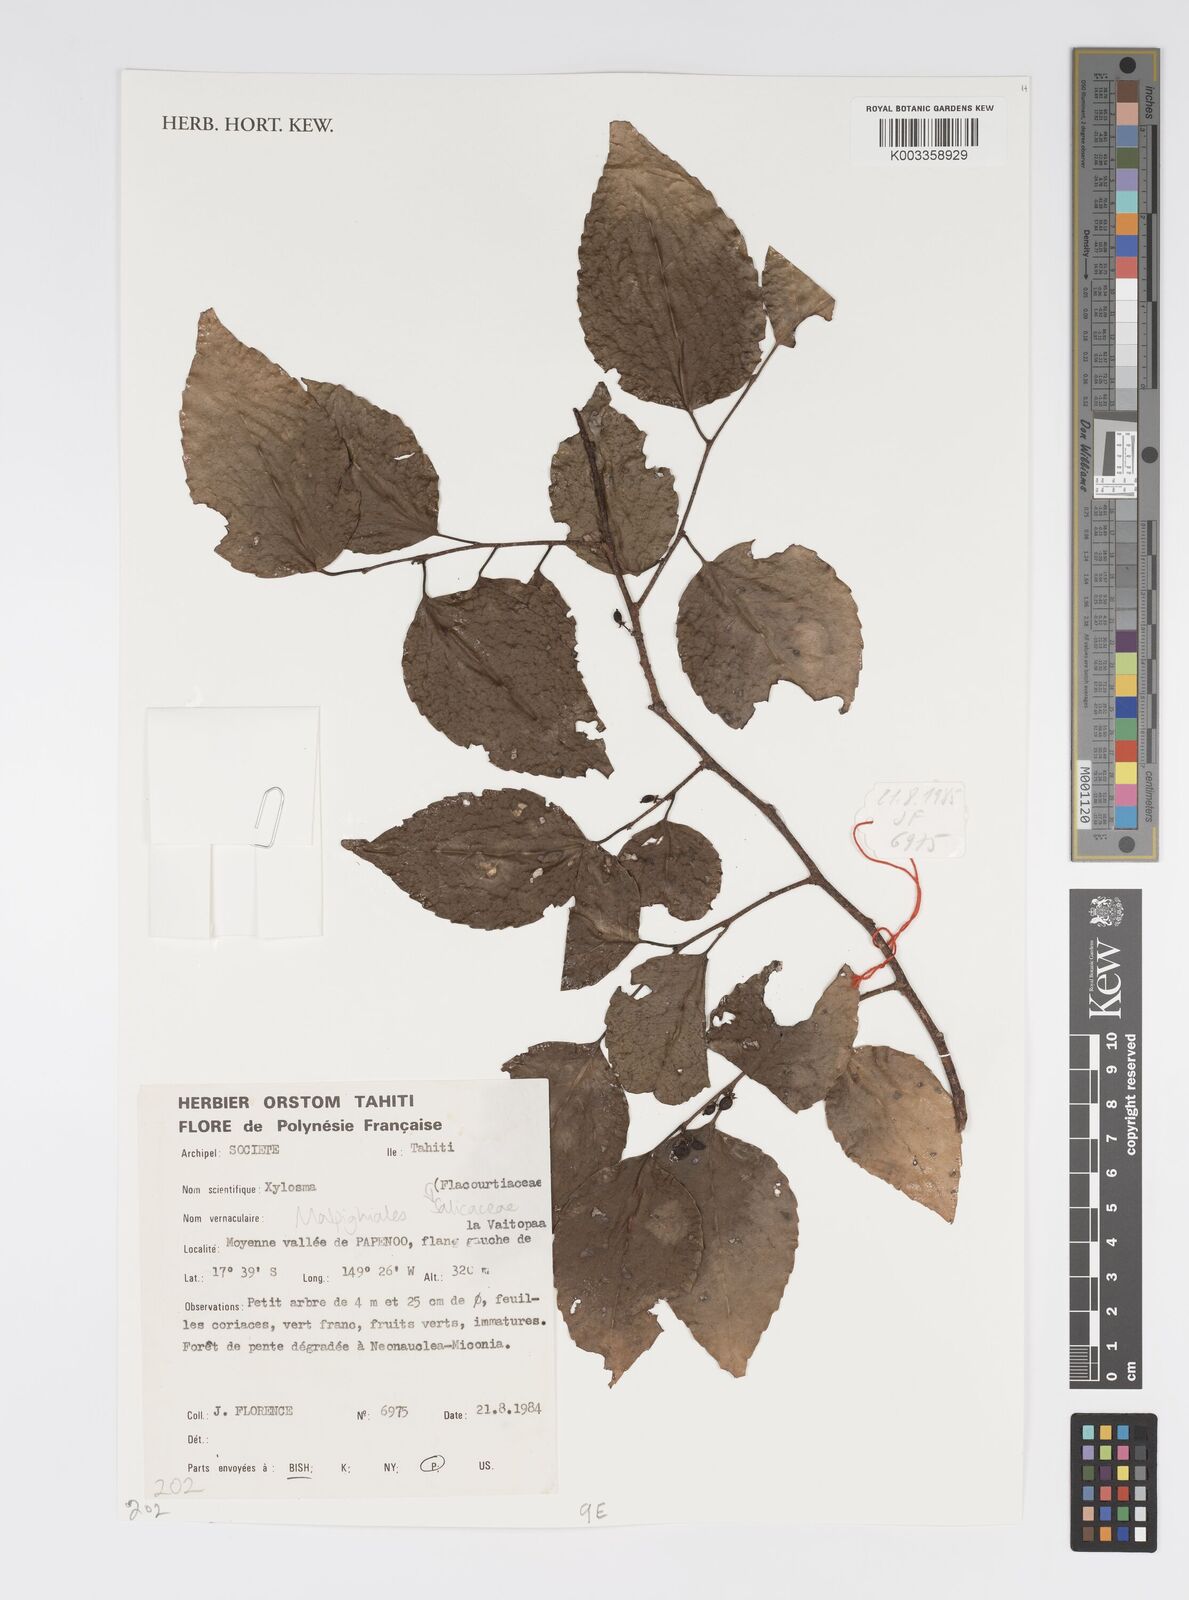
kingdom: Plantae
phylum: Tracheophyta
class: Magnoliopsida
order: Malpighiales
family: Salicaceae
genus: Xylosma
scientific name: Xylosma
